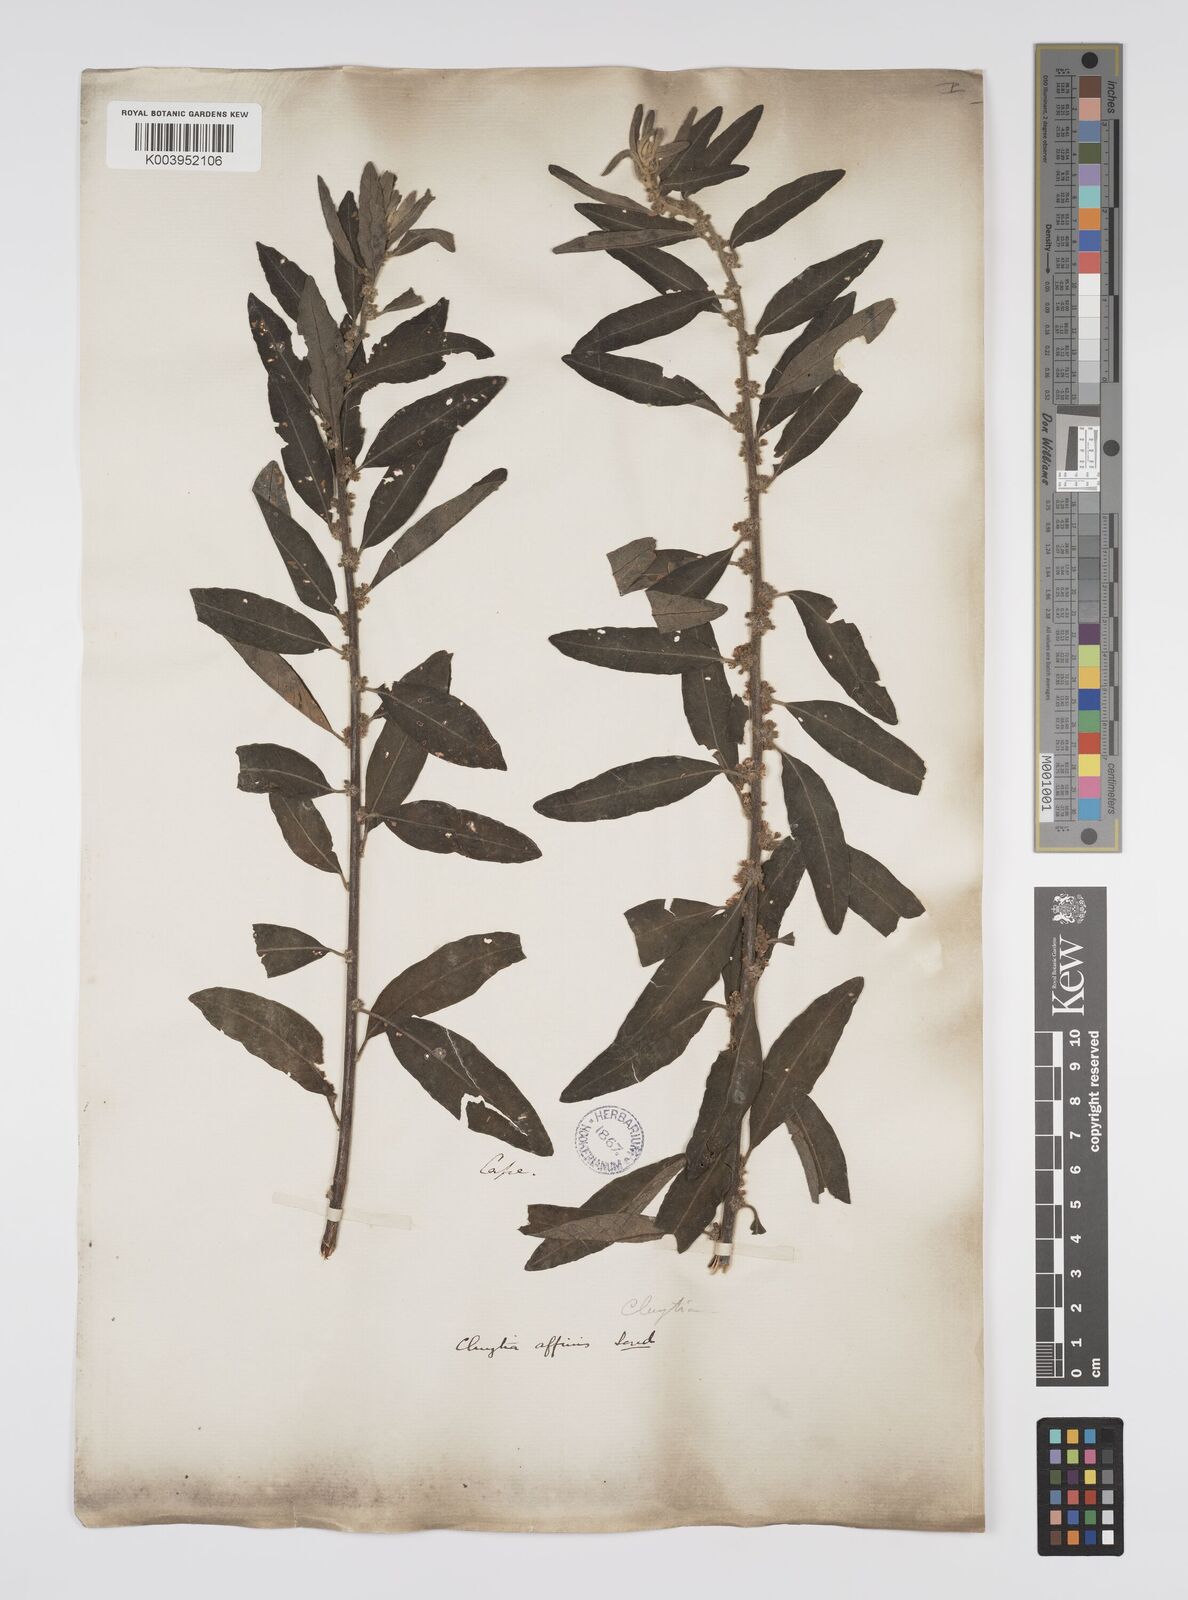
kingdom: Plantae
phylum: Tracheophyta
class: Magnoliopsida
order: Malpighiales
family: Peraceae
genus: Clutia
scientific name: Clutia affinis
